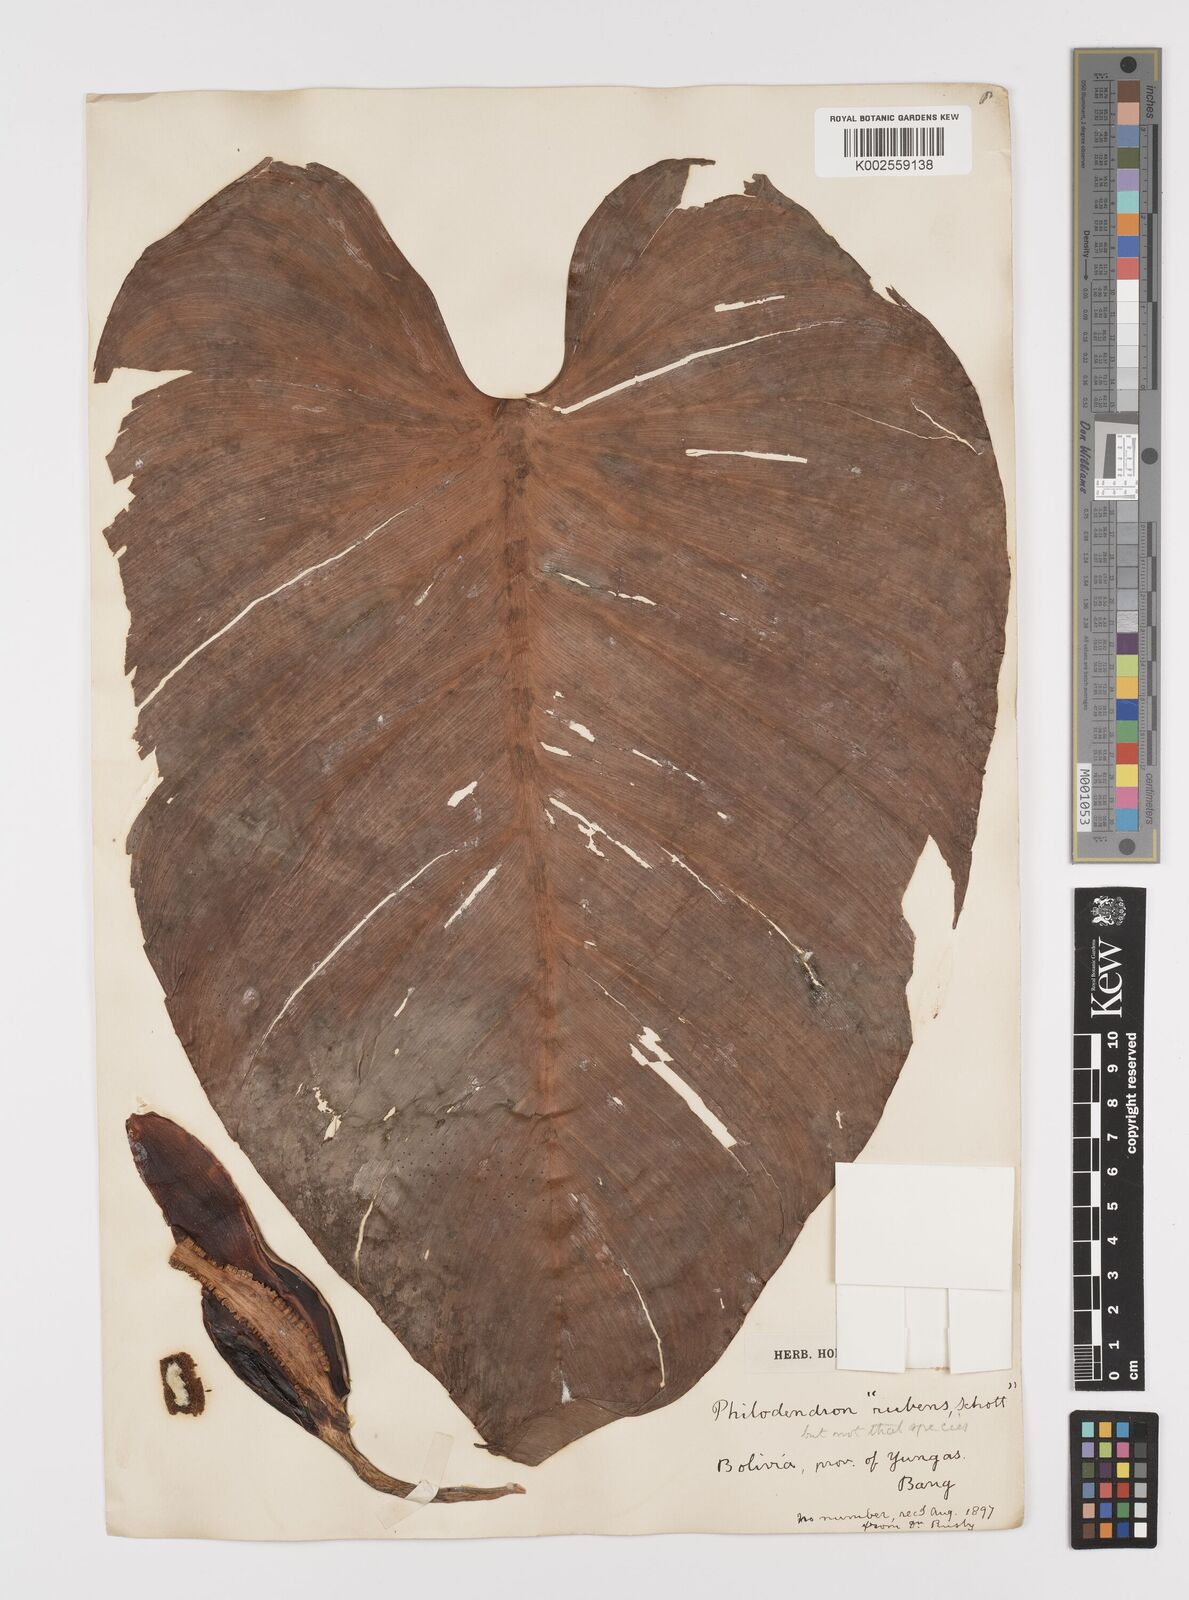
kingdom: Plantae
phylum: Tracheophyta
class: Liliopsida
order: Alismatales
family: Araceae
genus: Philodendron
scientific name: Philodendron ornatum
